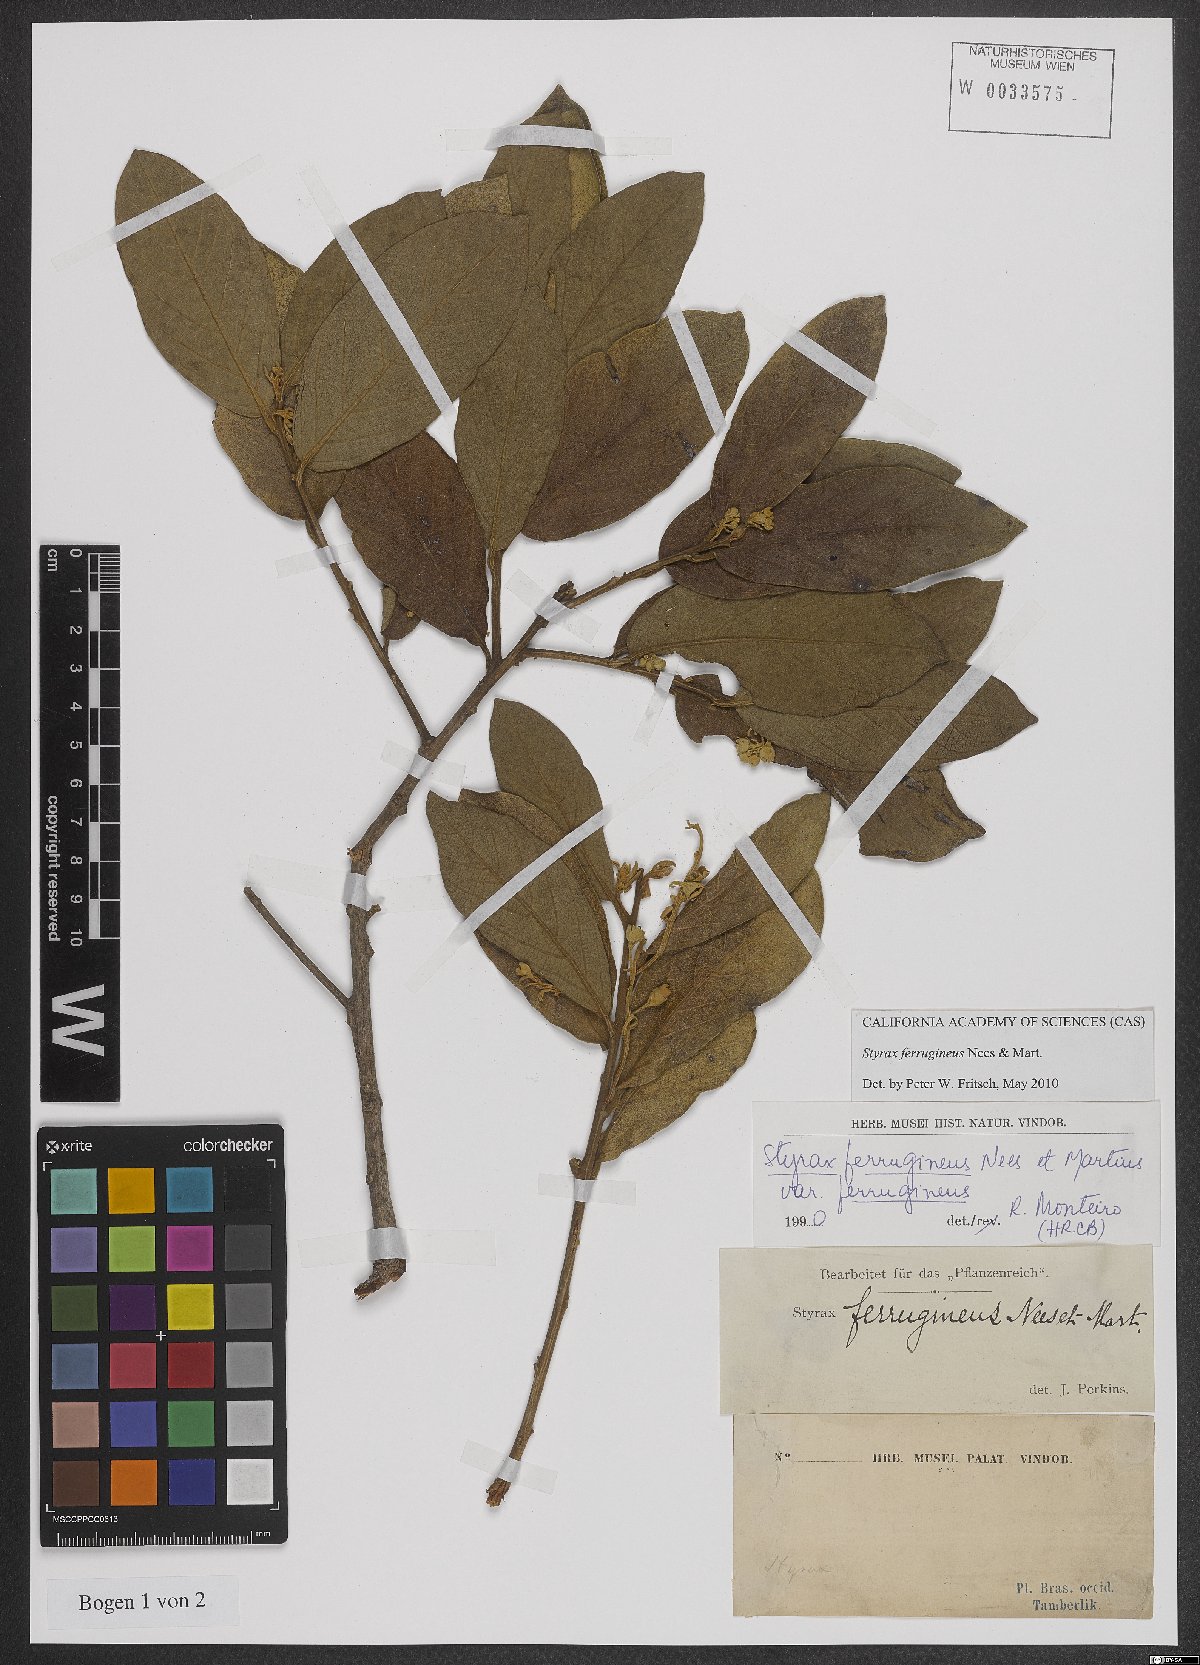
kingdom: Plantae
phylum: Tracheophyta
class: Magnoliopsida
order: Ericales
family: Styracaceae
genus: Styrax
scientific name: Styrax ferrugineus
